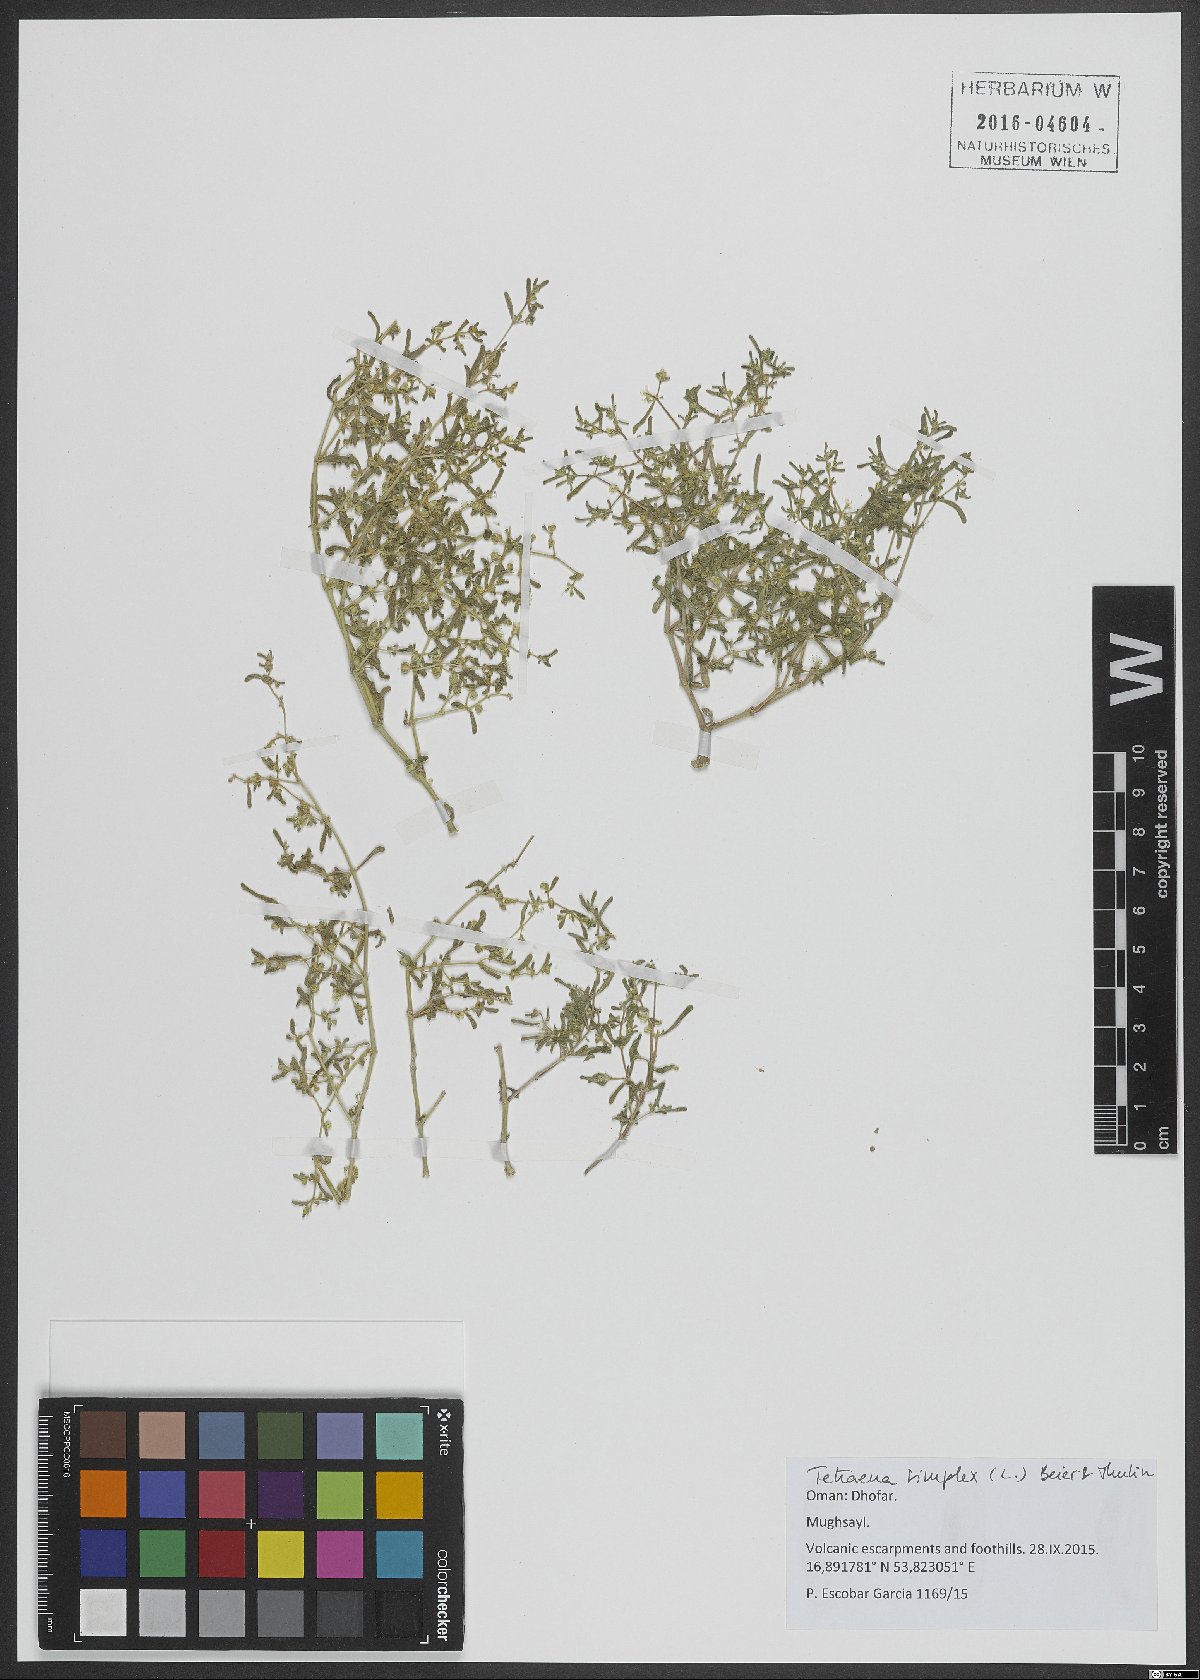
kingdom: Plantae
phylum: Tracheophyta
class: Magnoliopsida
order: Zygophyllales
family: Zygophyllaceae
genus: Tetraena
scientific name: Tetraena simplex
